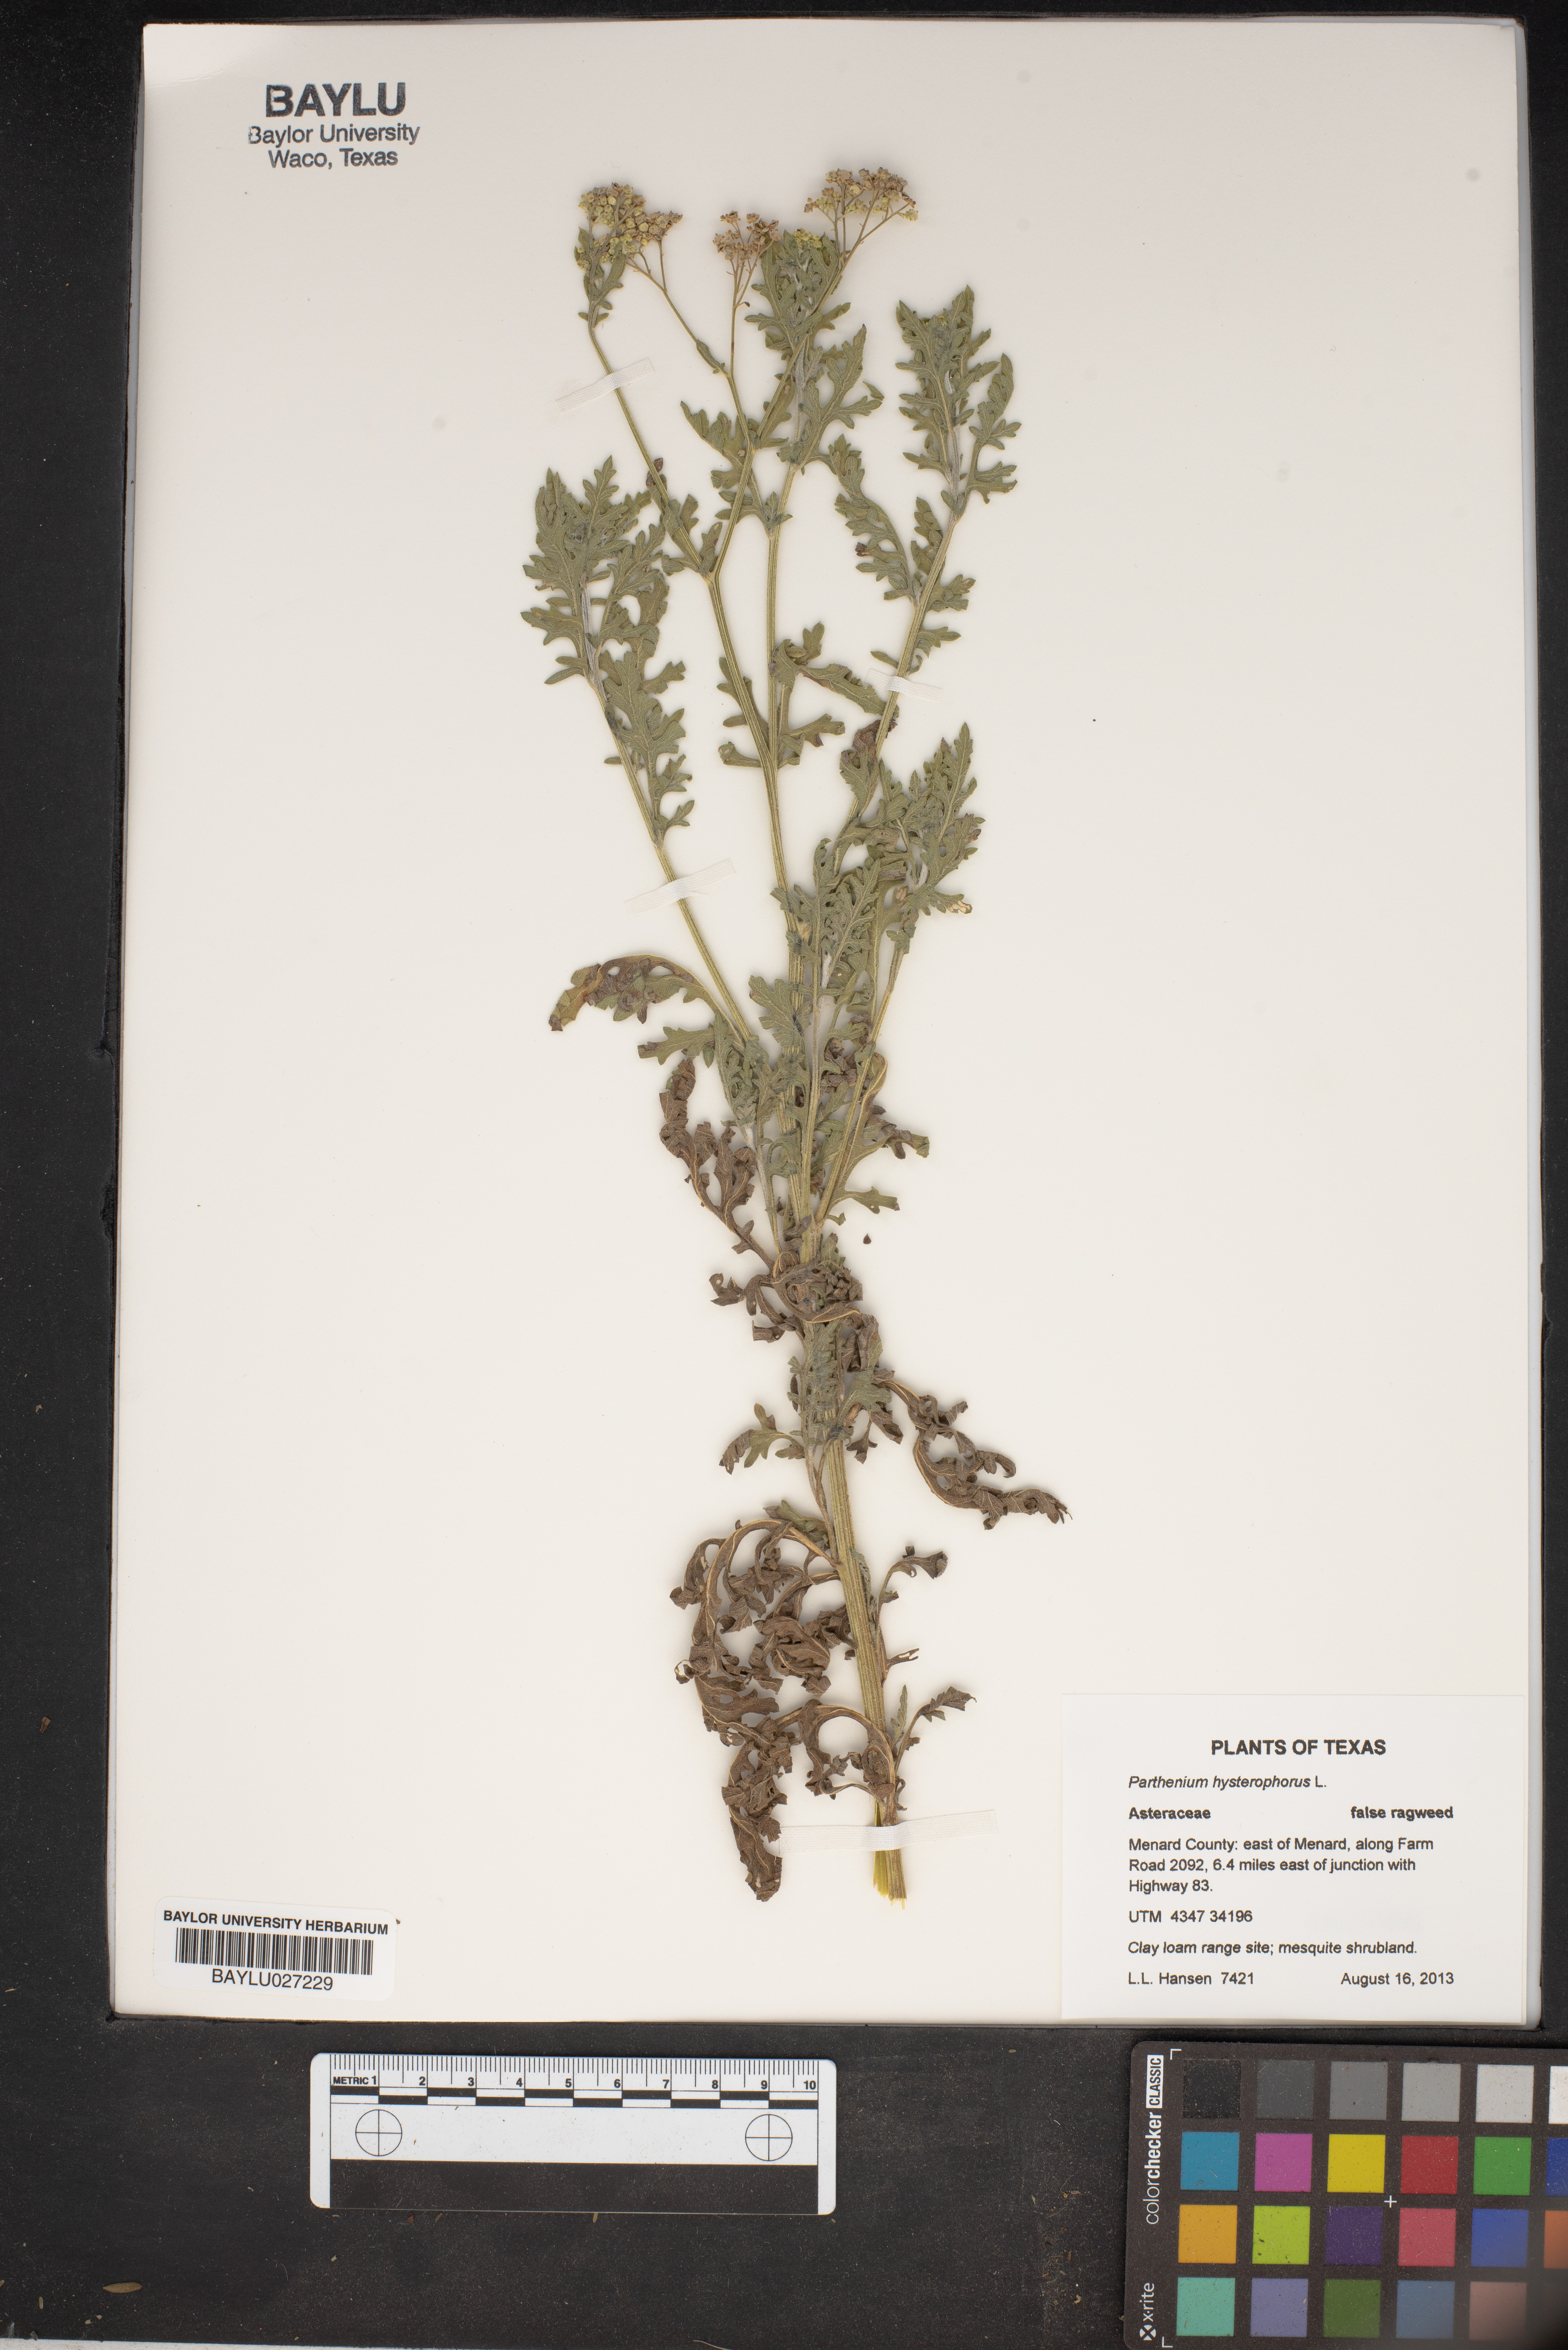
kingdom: Plantae
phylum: Tracheophyta
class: Magnoliopsida
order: Asterales
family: Asteraceae
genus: Parthenium
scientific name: Parthenium hysterophorus
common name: Santa maria feverfew
